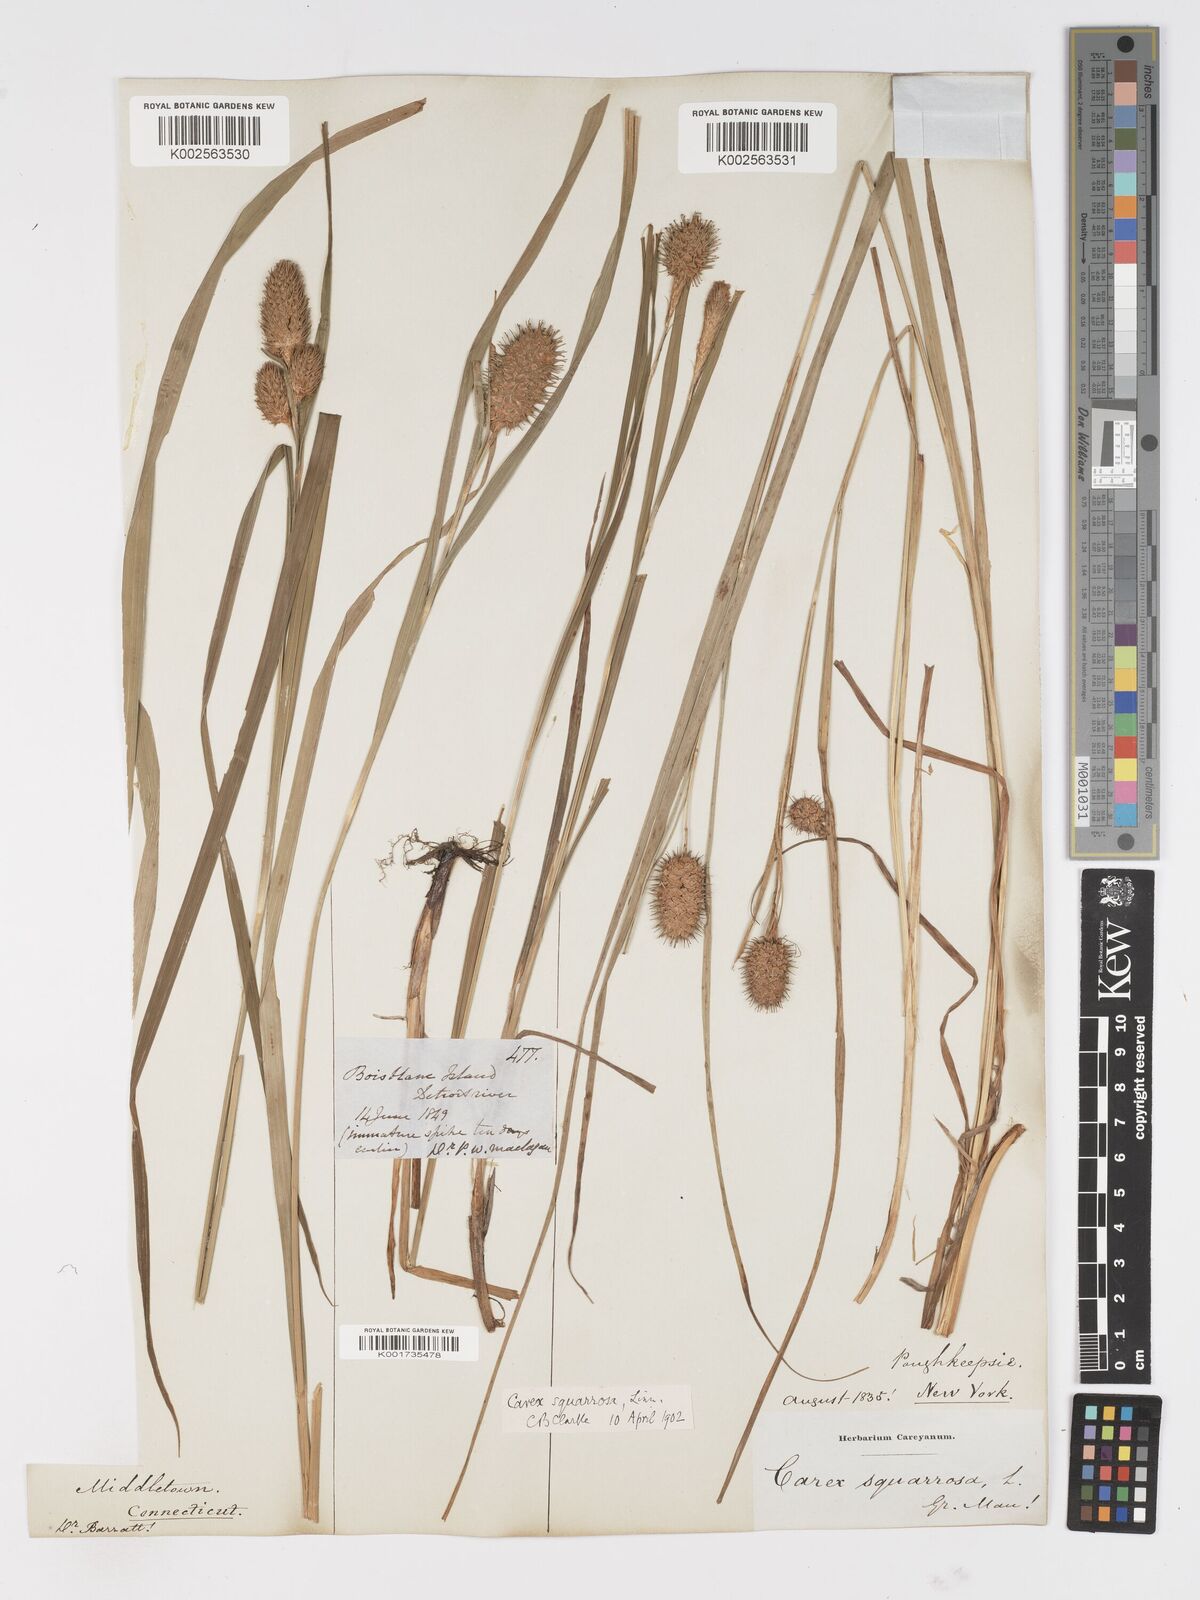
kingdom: Plantae
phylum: Tracheophyta
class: Liliopsida
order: Poales
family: Cyperaceae
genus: Carex
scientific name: Carex squarrosa
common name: Narrow-leaved cattail sedge
